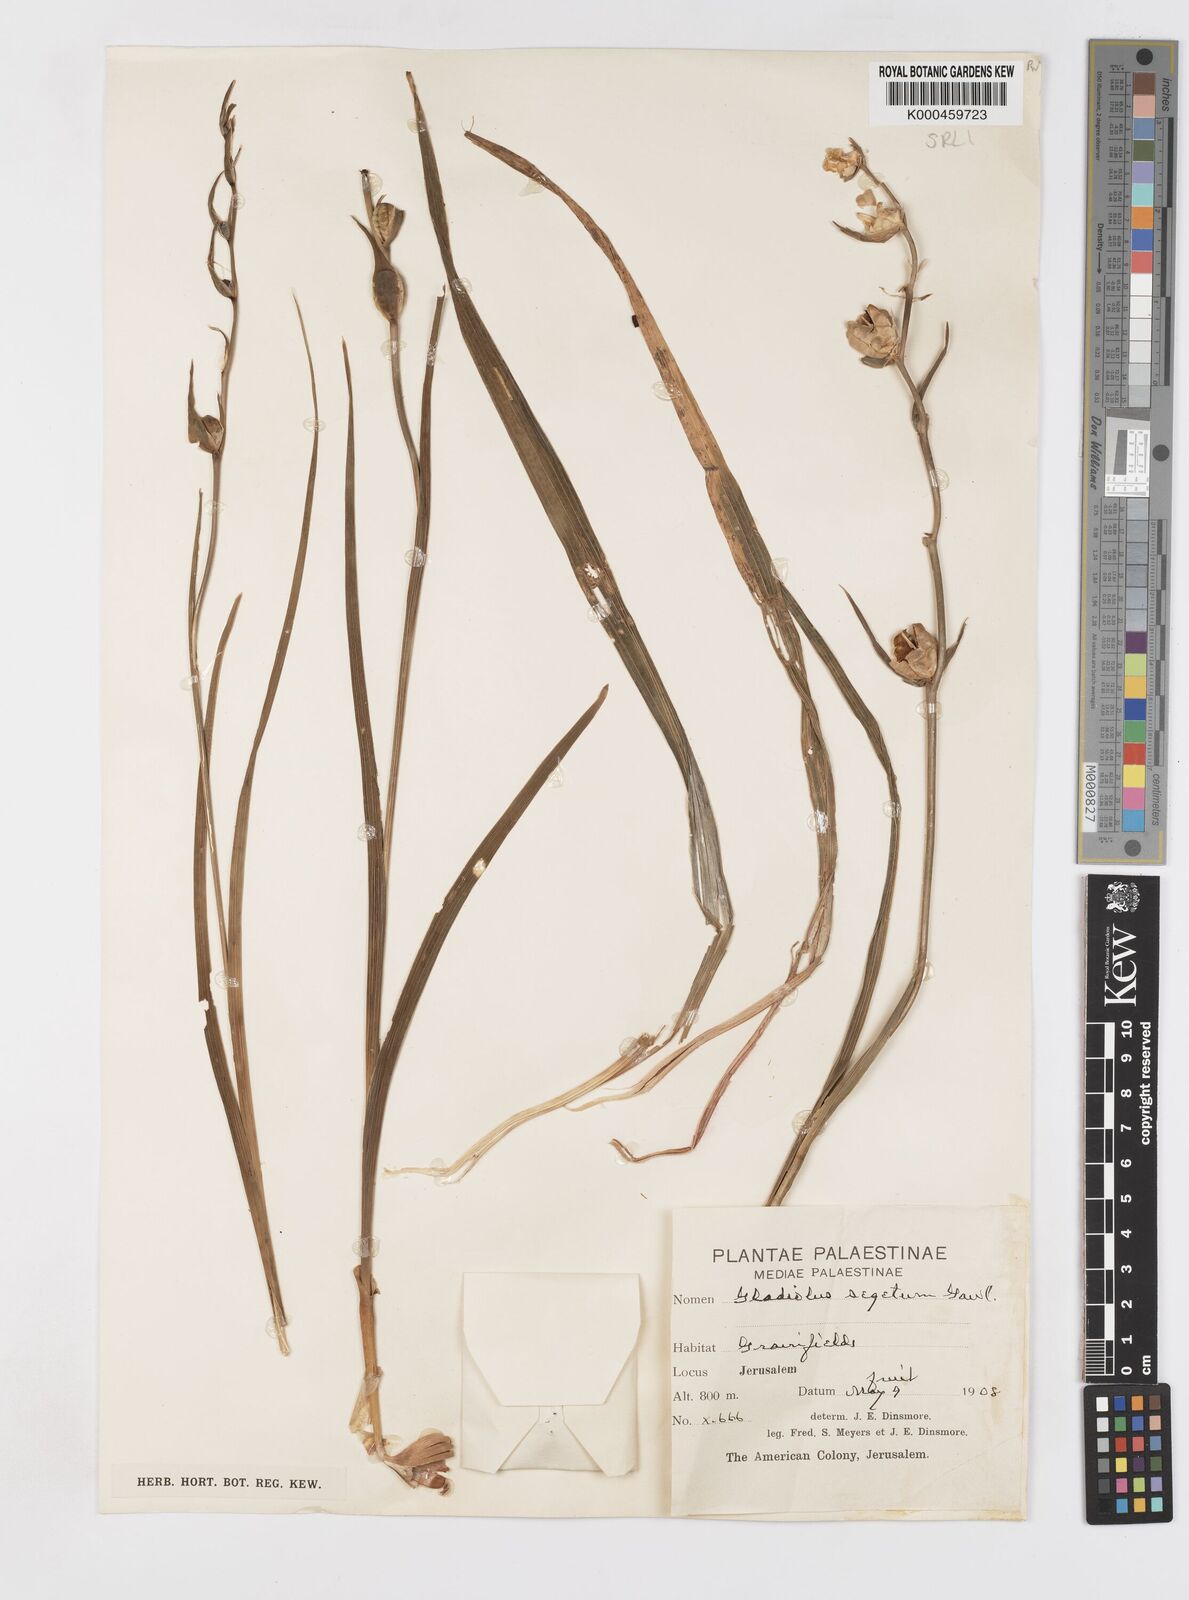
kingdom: Plantae
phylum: Tracheophyta
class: Liliopsida
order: Asparagales
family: Iridaceae
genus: Gladiolus
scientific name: Gladiolus italicus
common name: Field gladiolus
